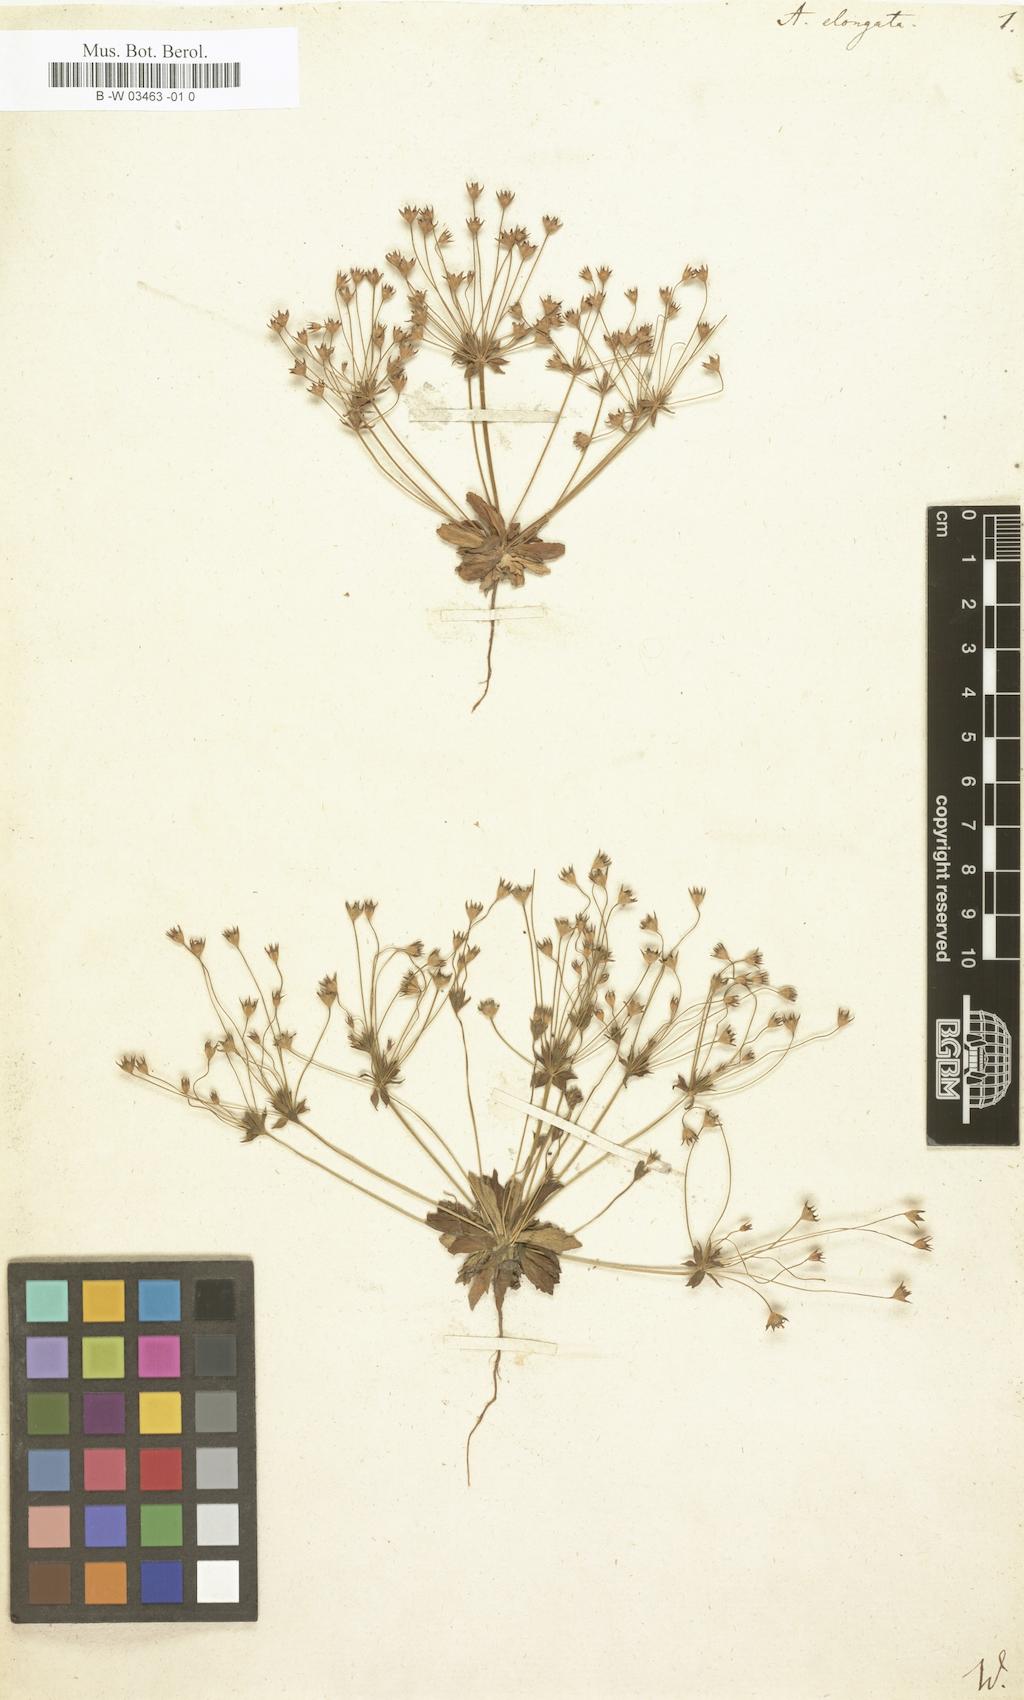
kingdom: Plantae
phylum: Tracheophyta
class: Magnoliopsida
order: Ericales
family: Primulaceae
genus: Androsace
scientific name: Androsace elongata
